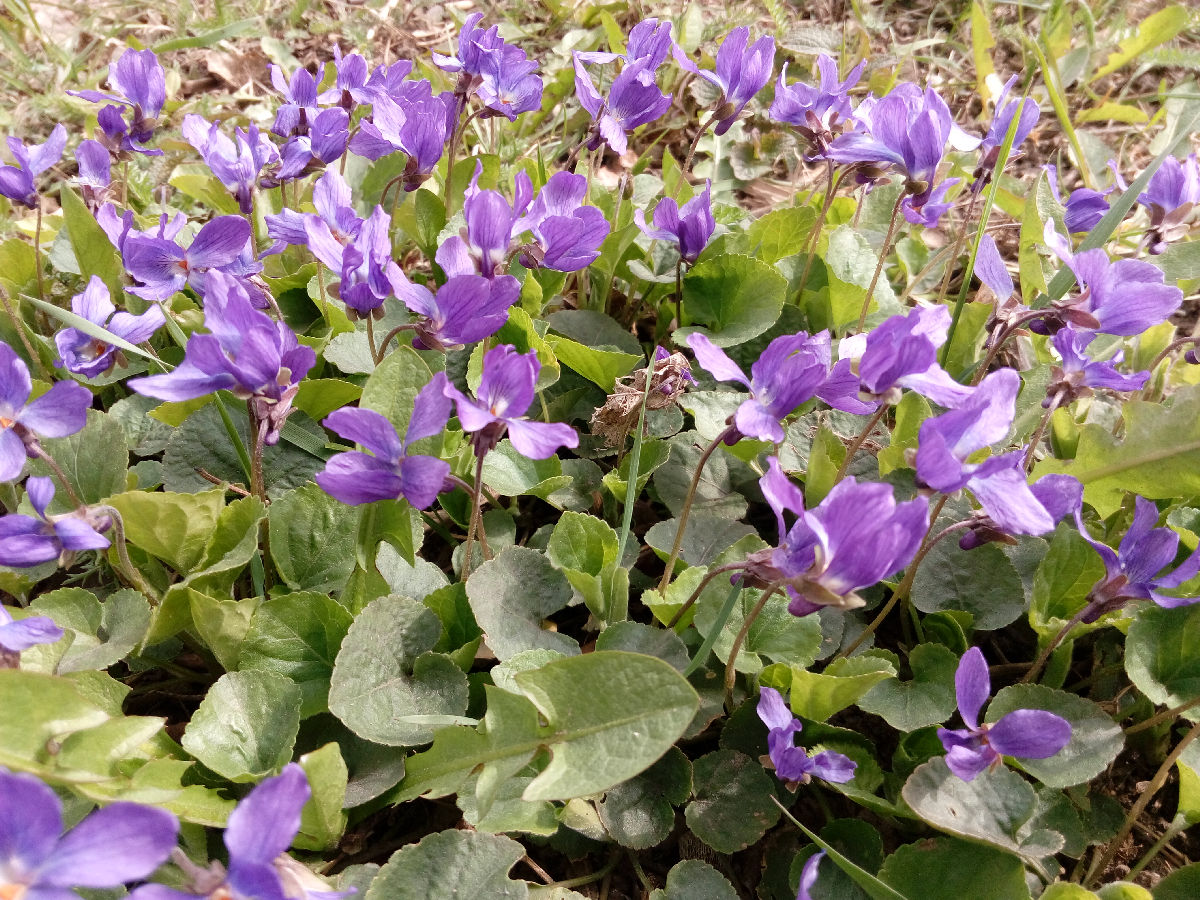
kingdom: Plantae
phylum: Tracheophyta
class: Magnoliopsida
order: Malpighiales
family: Violaceae
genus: Viola
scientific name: Viola odorata
